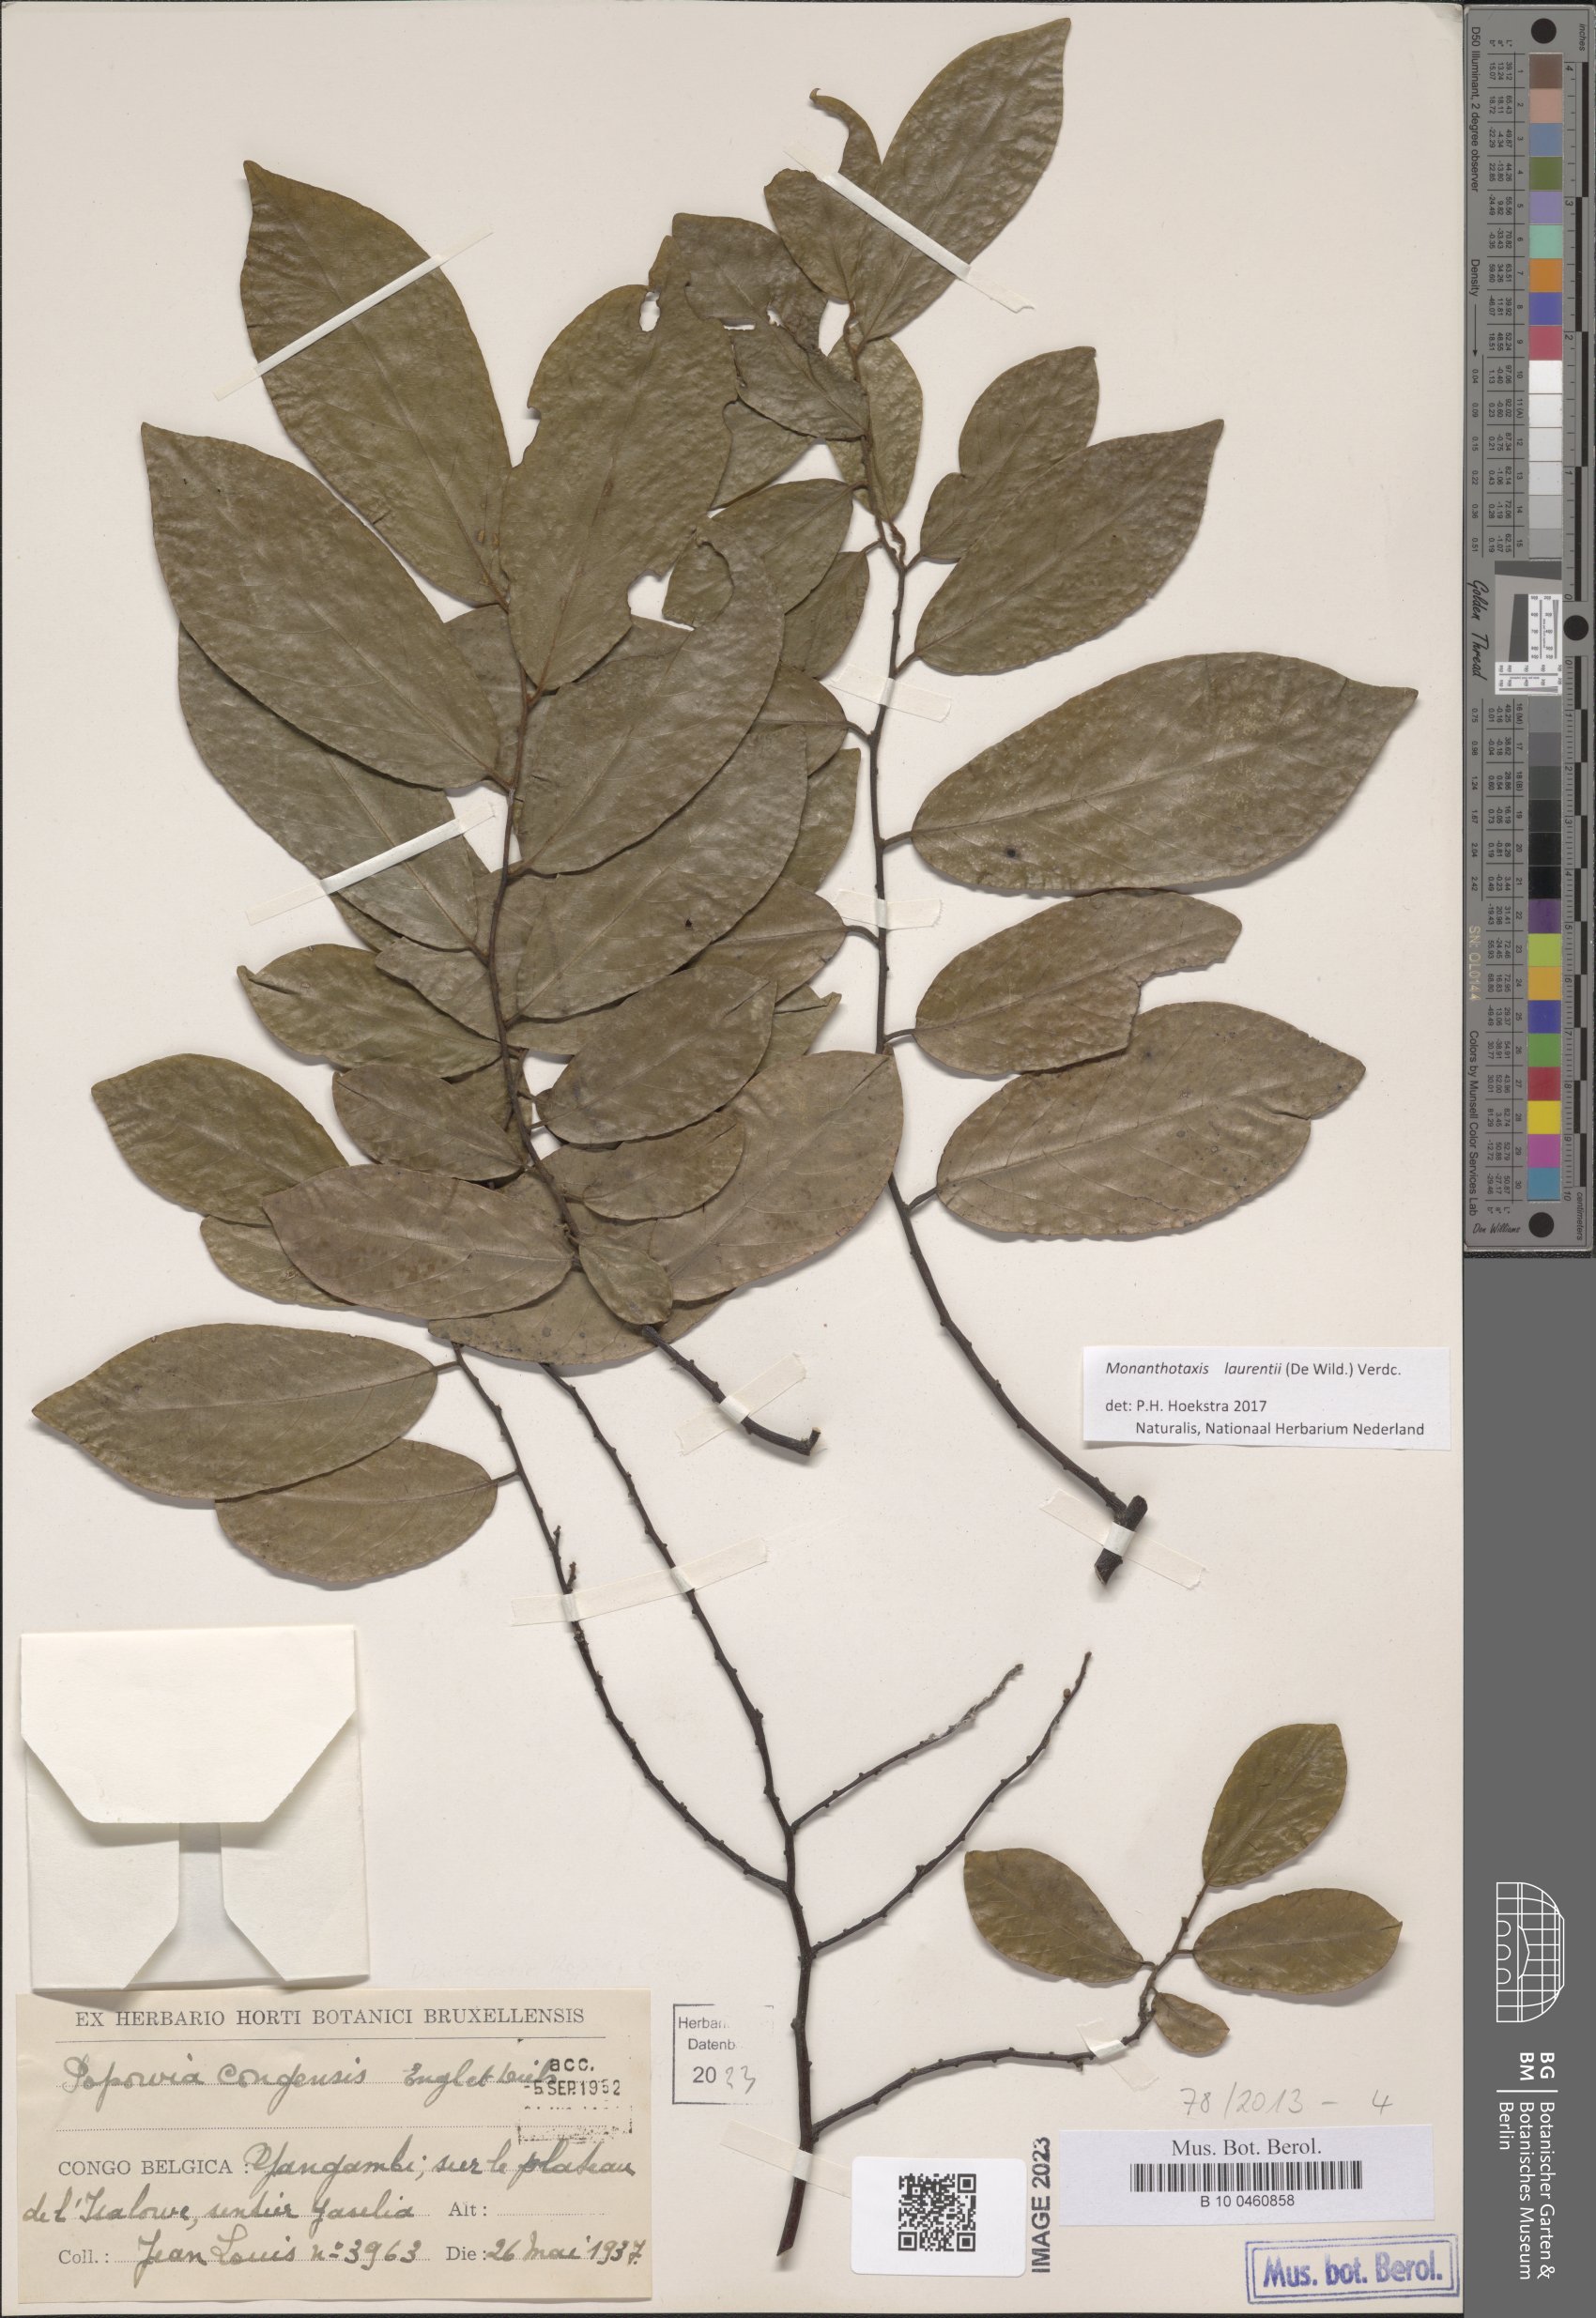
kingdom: Plantae
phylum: Tracheophyta
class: Magnoliopsida
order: Magnoliales
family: Annonaceae
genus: Monanthotaxis
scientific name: Monanthotaxis laurentii
